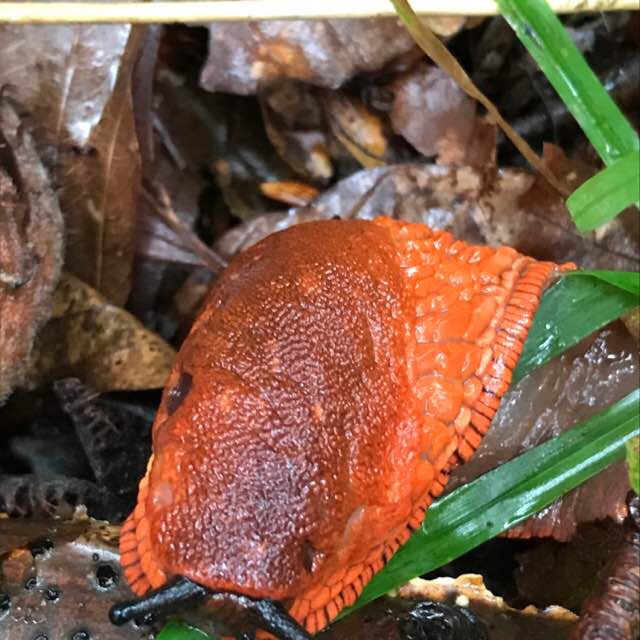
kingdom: Animalia
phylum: Mollusca
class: Gastropoda
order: Stylommatophora
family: Arionidae
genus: Arion
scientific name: Arion rufus
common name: Rød skovsnegl
